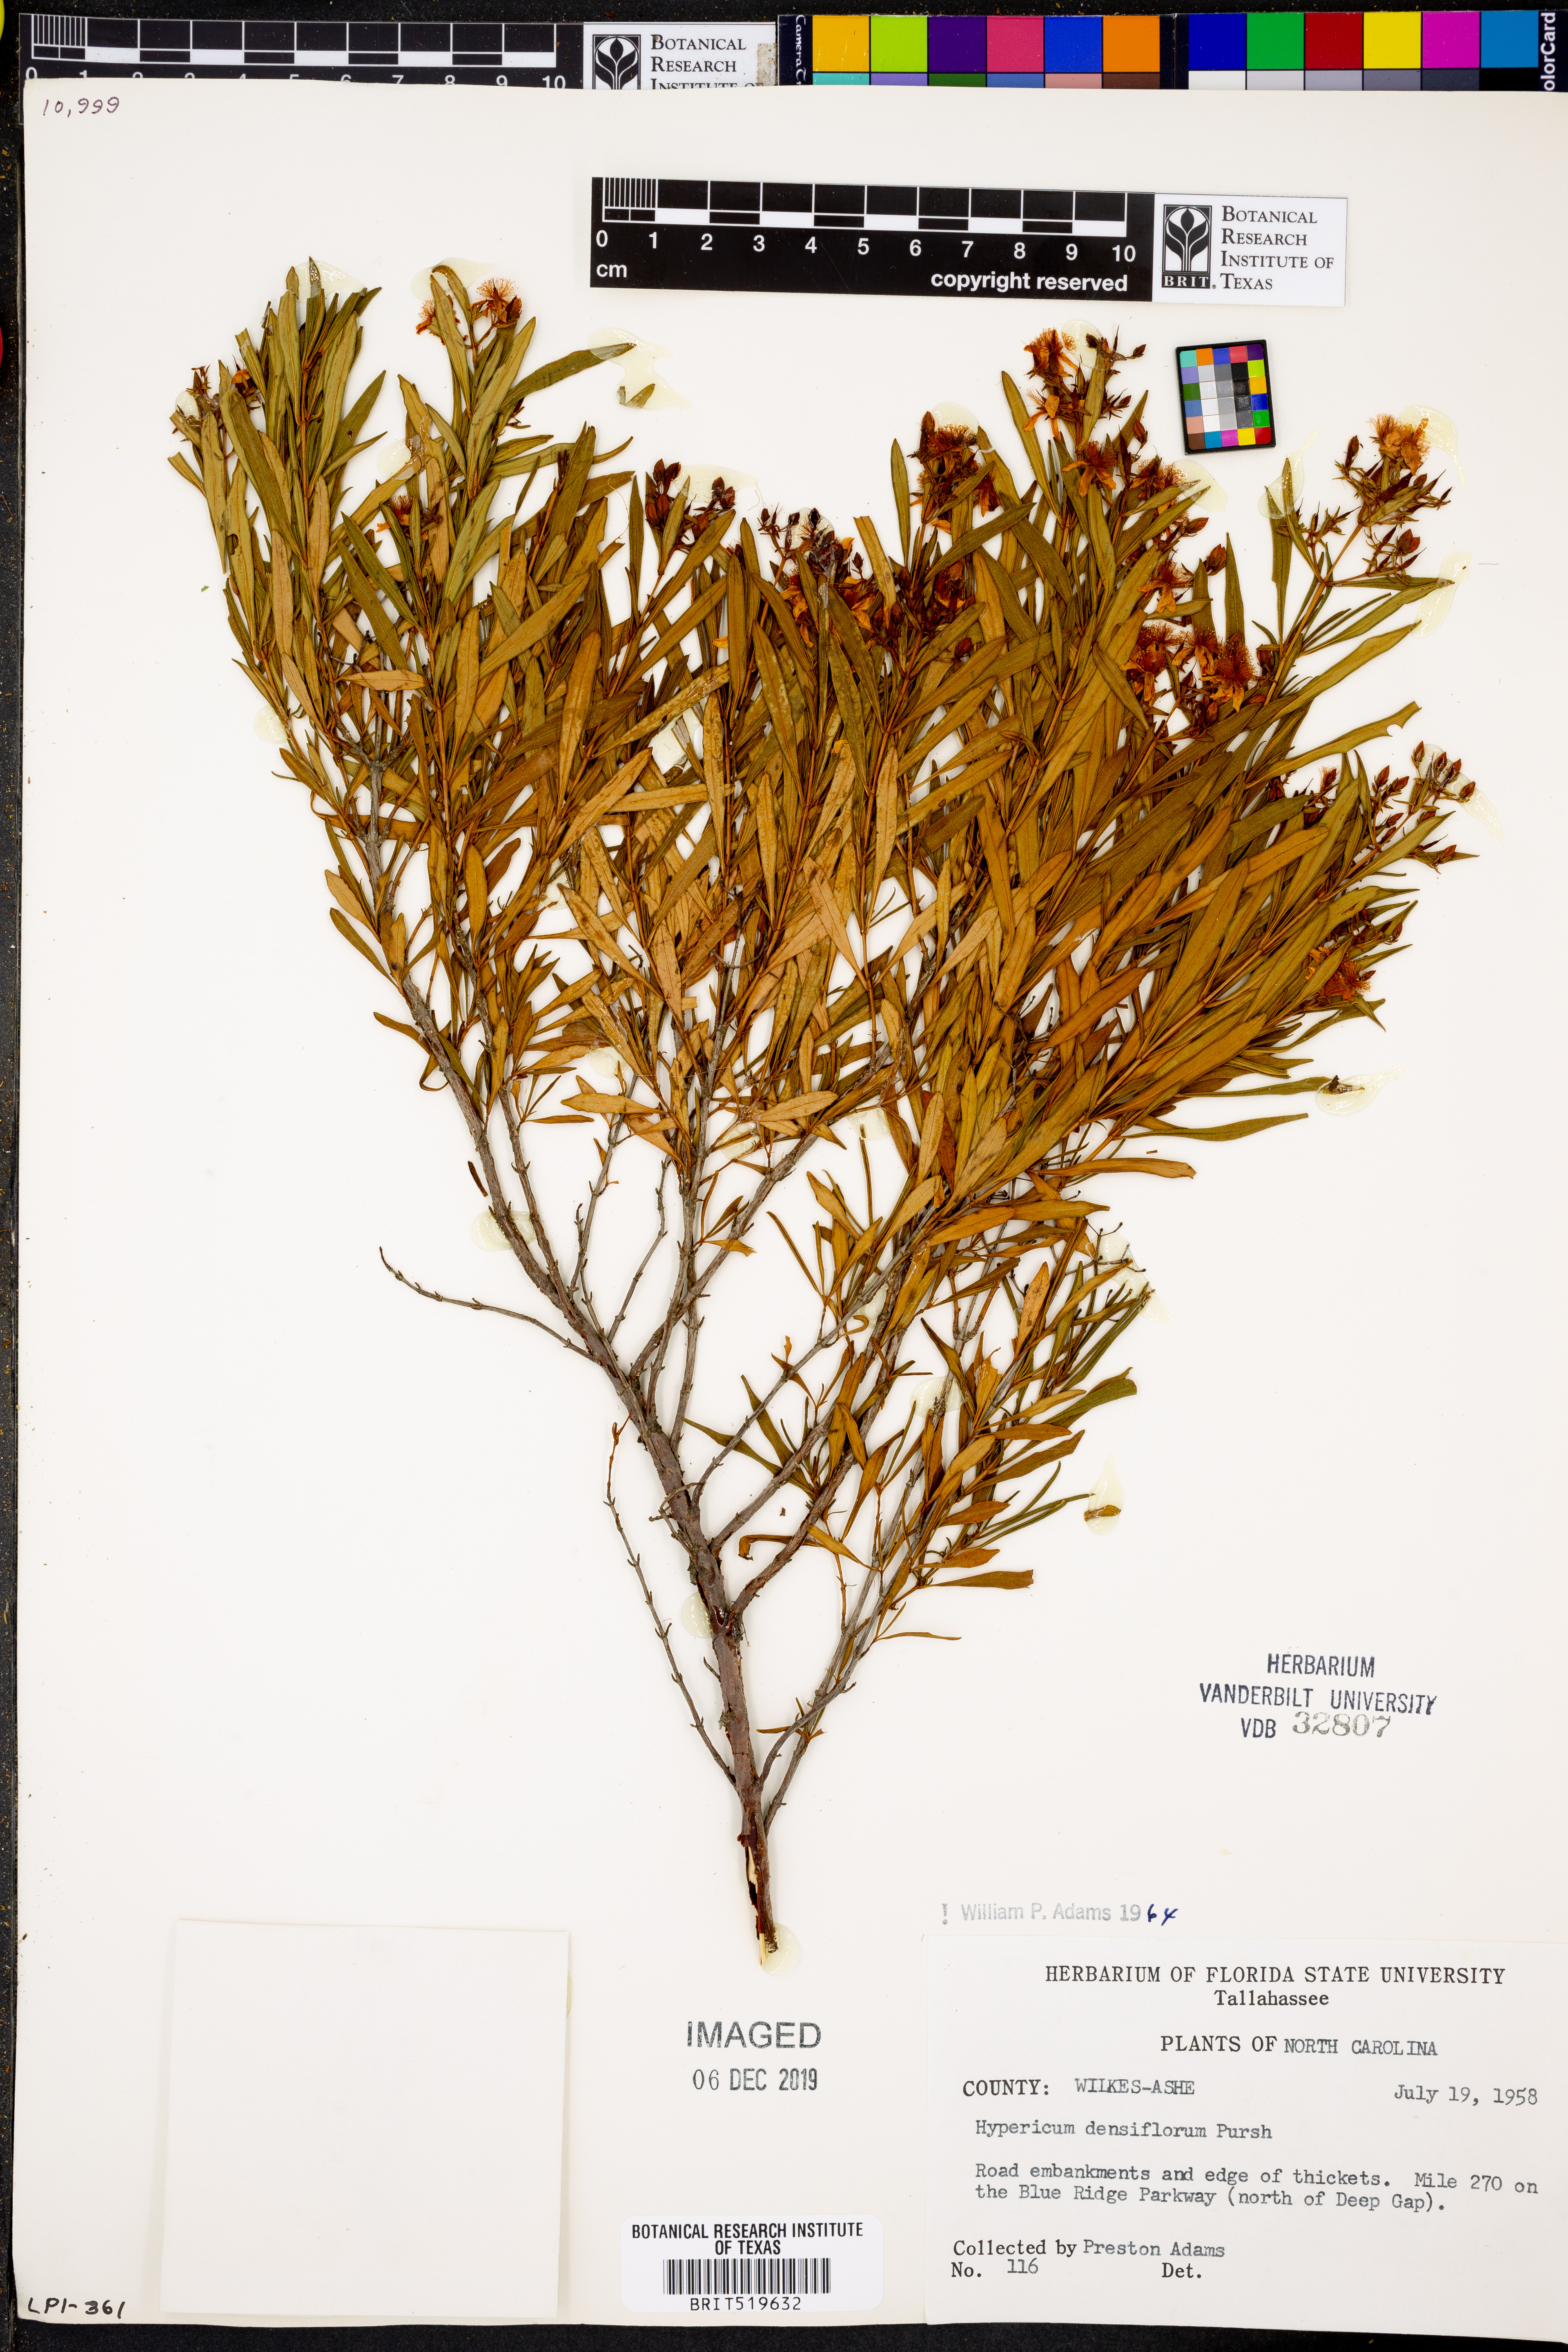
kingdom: Plantae
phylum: Tracheophyta
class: Magnoliopsida
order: Malpighiales
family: Hypericaceae
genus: Hypericum
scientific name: Hypericum densiflorum
